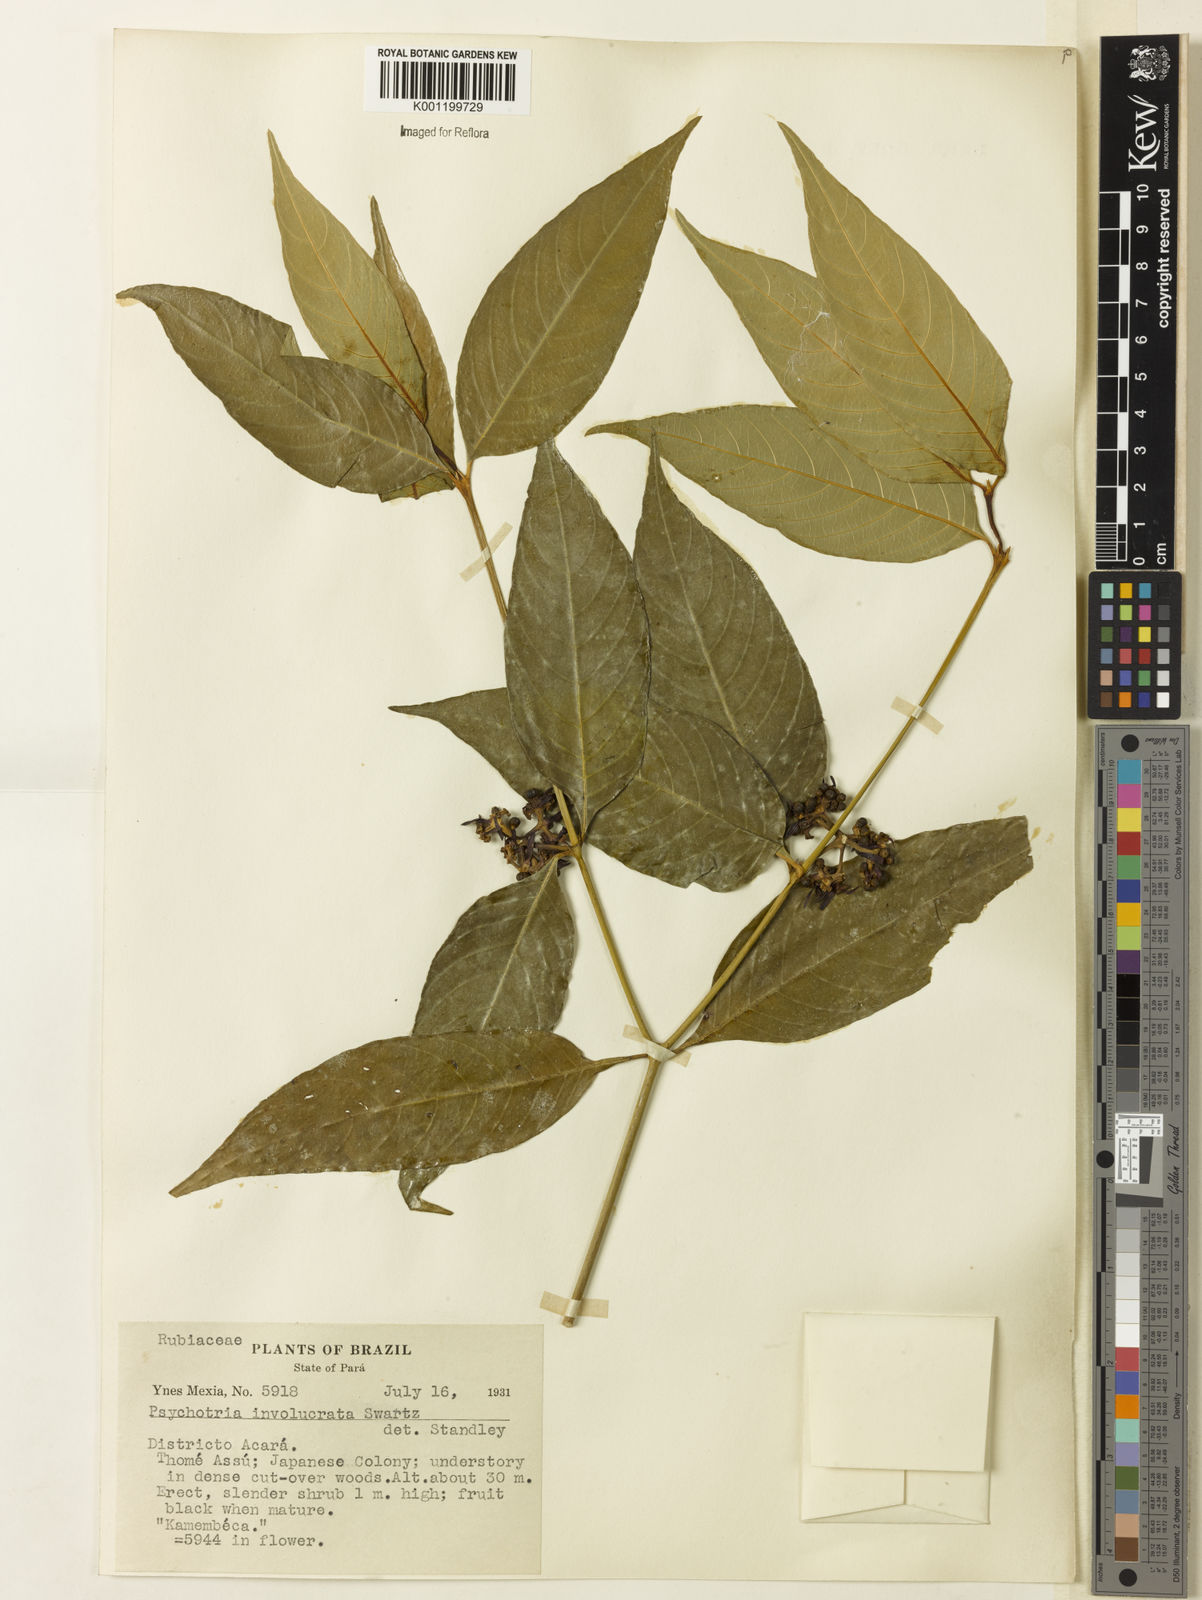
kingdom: Plantae
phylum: Tracheophyta
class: Magnoliopsida
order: Gentianales
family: Rubiaceae
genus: Psychotria
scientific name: Psychotria
